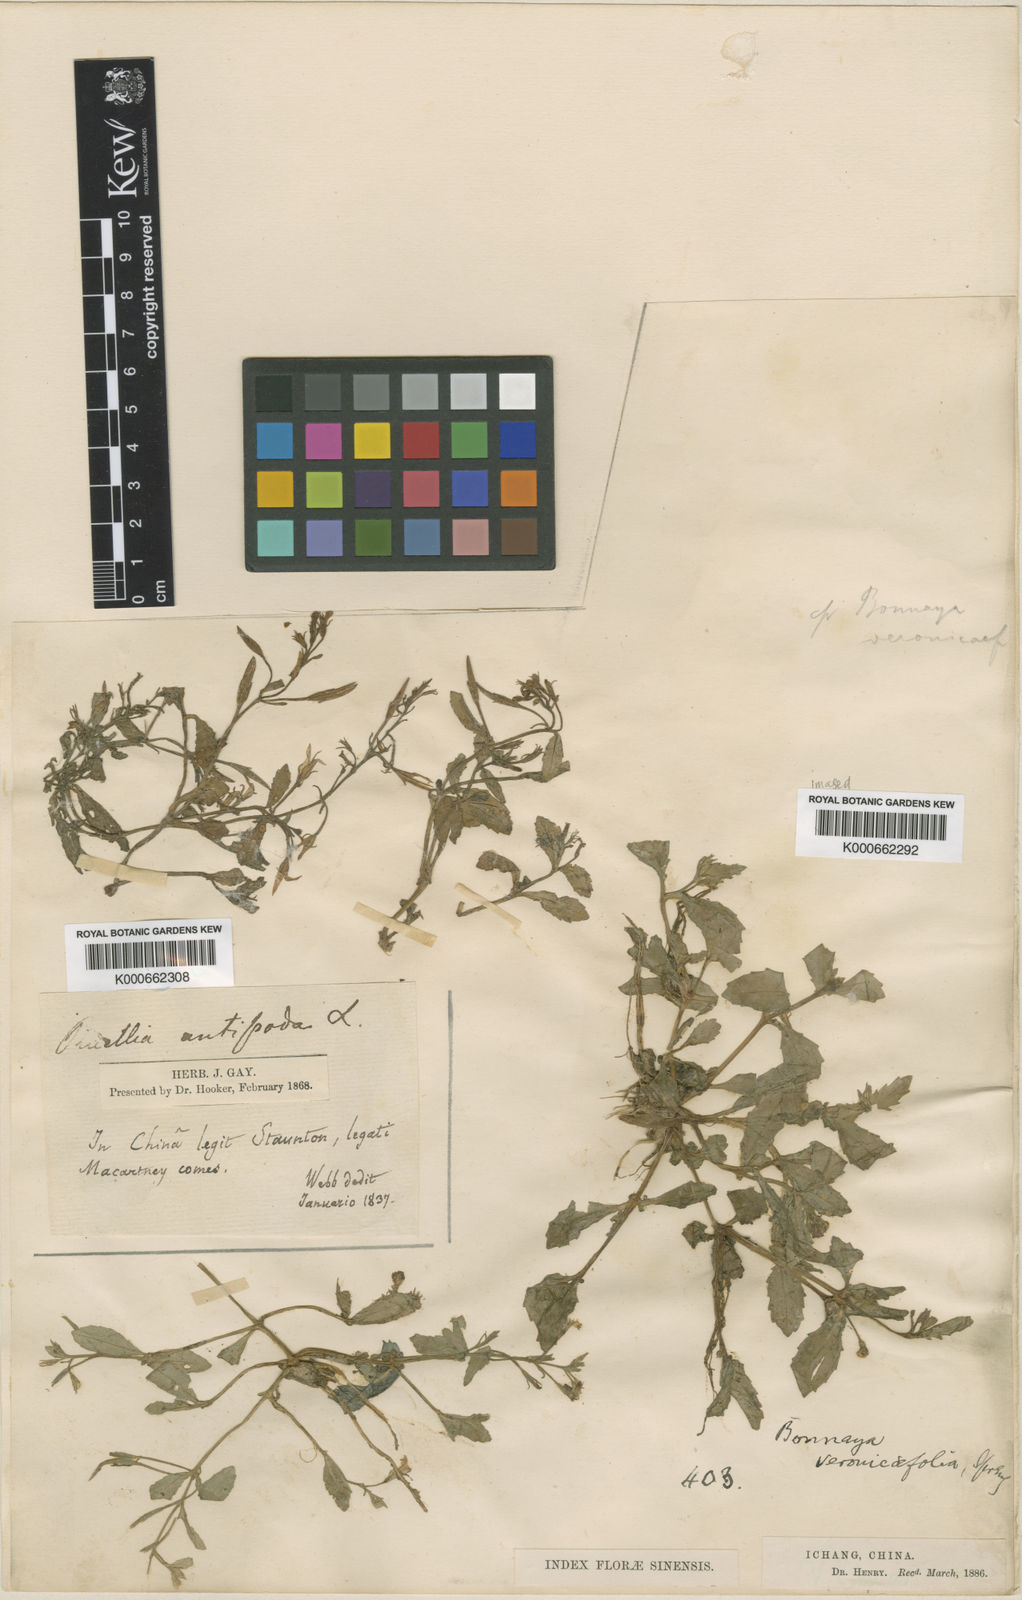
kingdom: Plantae
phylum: Tracheophyta
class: Magnoliopsida
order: Lamiales
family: Linderniaceae
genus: Bonnaya
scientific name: Bonnaya antipoda
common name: Sparrow false pimpernel
